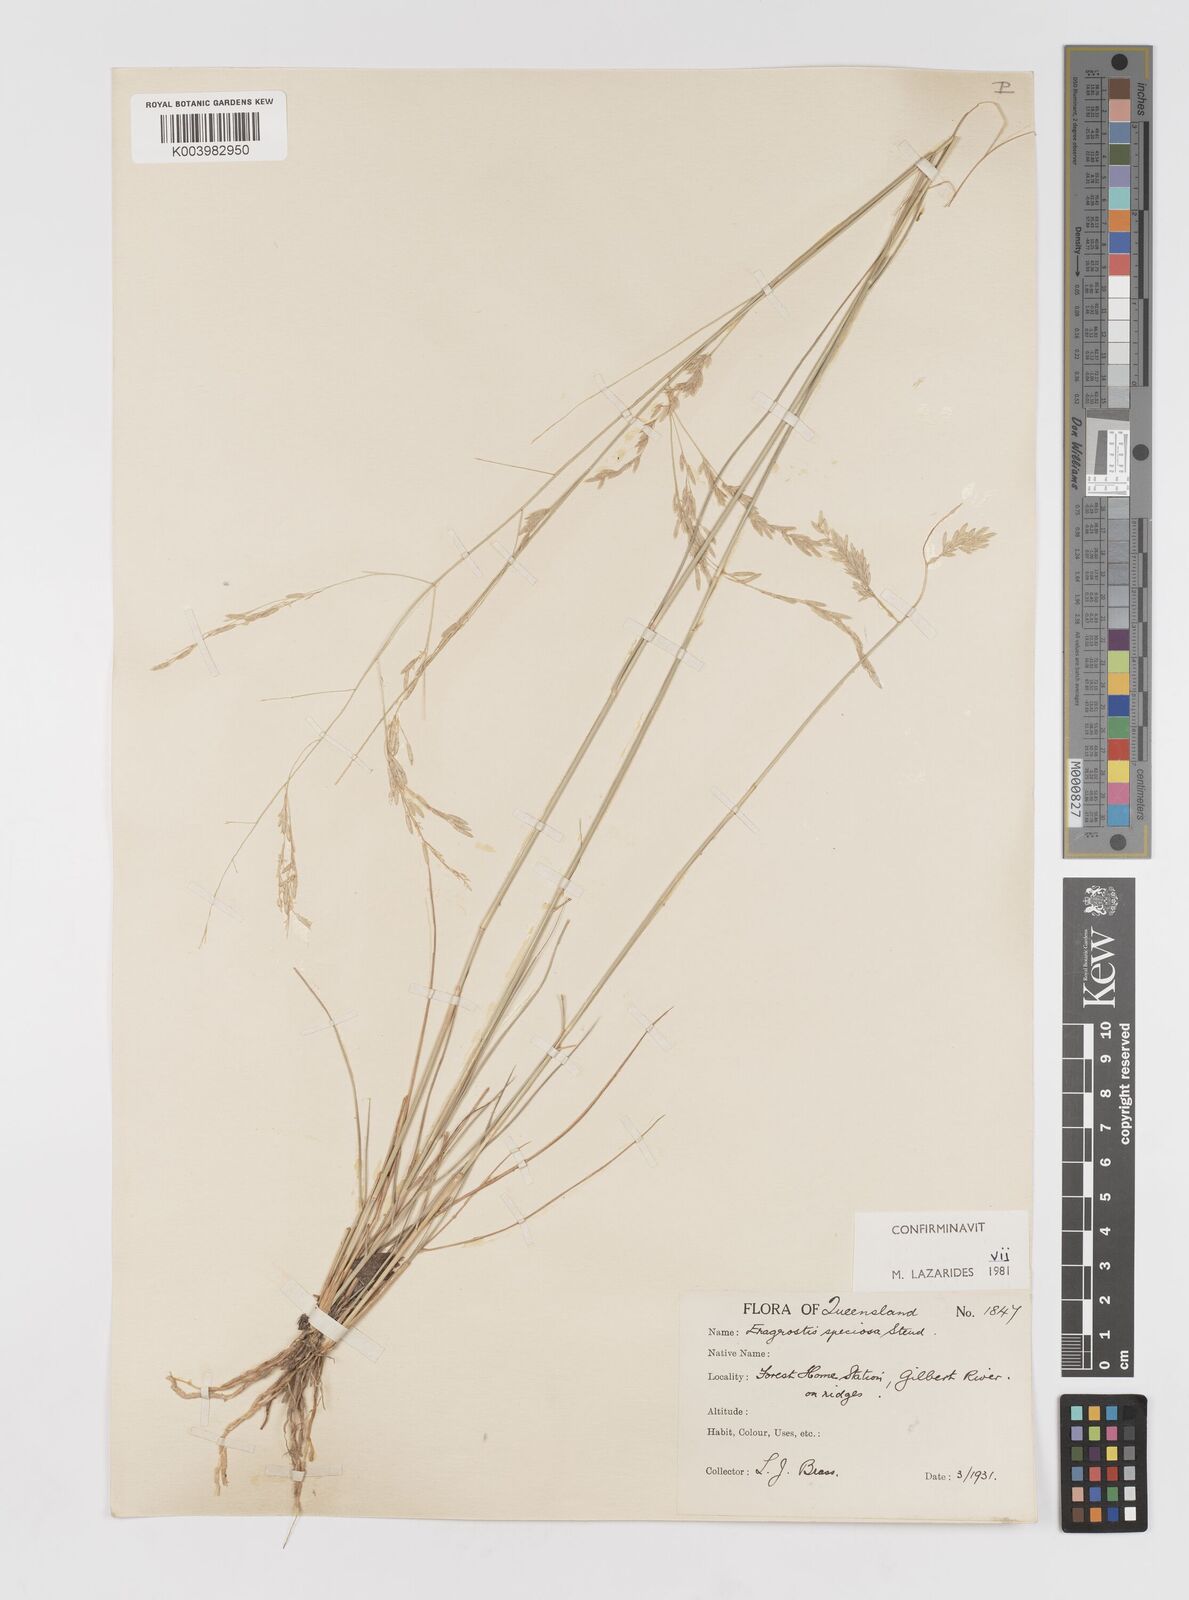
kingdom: Plantae
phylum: Tracheophyta
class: Liliopsida
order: Poales
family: Poaceae
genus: Eragrostis
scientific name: Eragrostis speciosa
